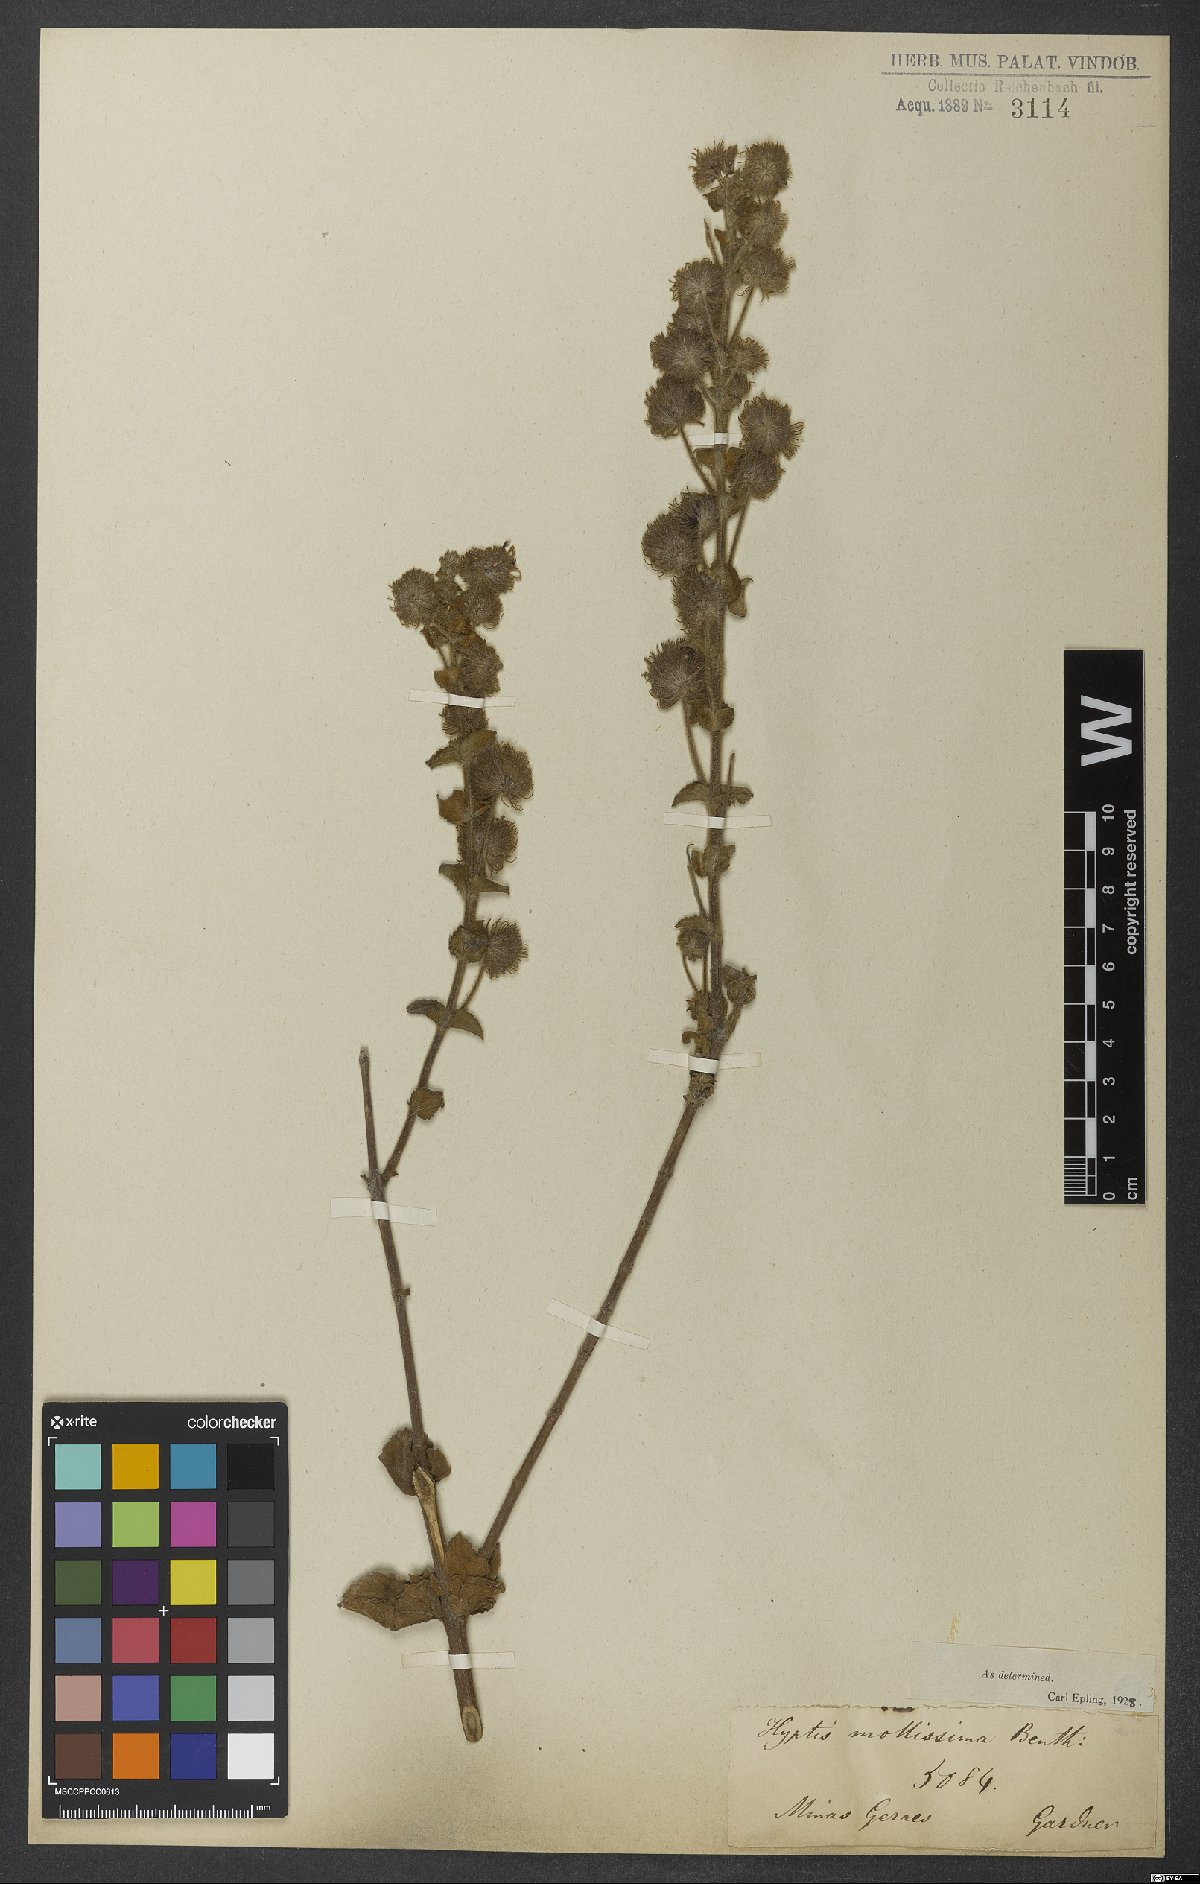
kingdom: Plantae
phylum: Tracheophyta
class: Magnoliopsida
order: Lamiales
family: Lamiaceae
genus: Medusantha
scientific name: Medusantha mollissima
